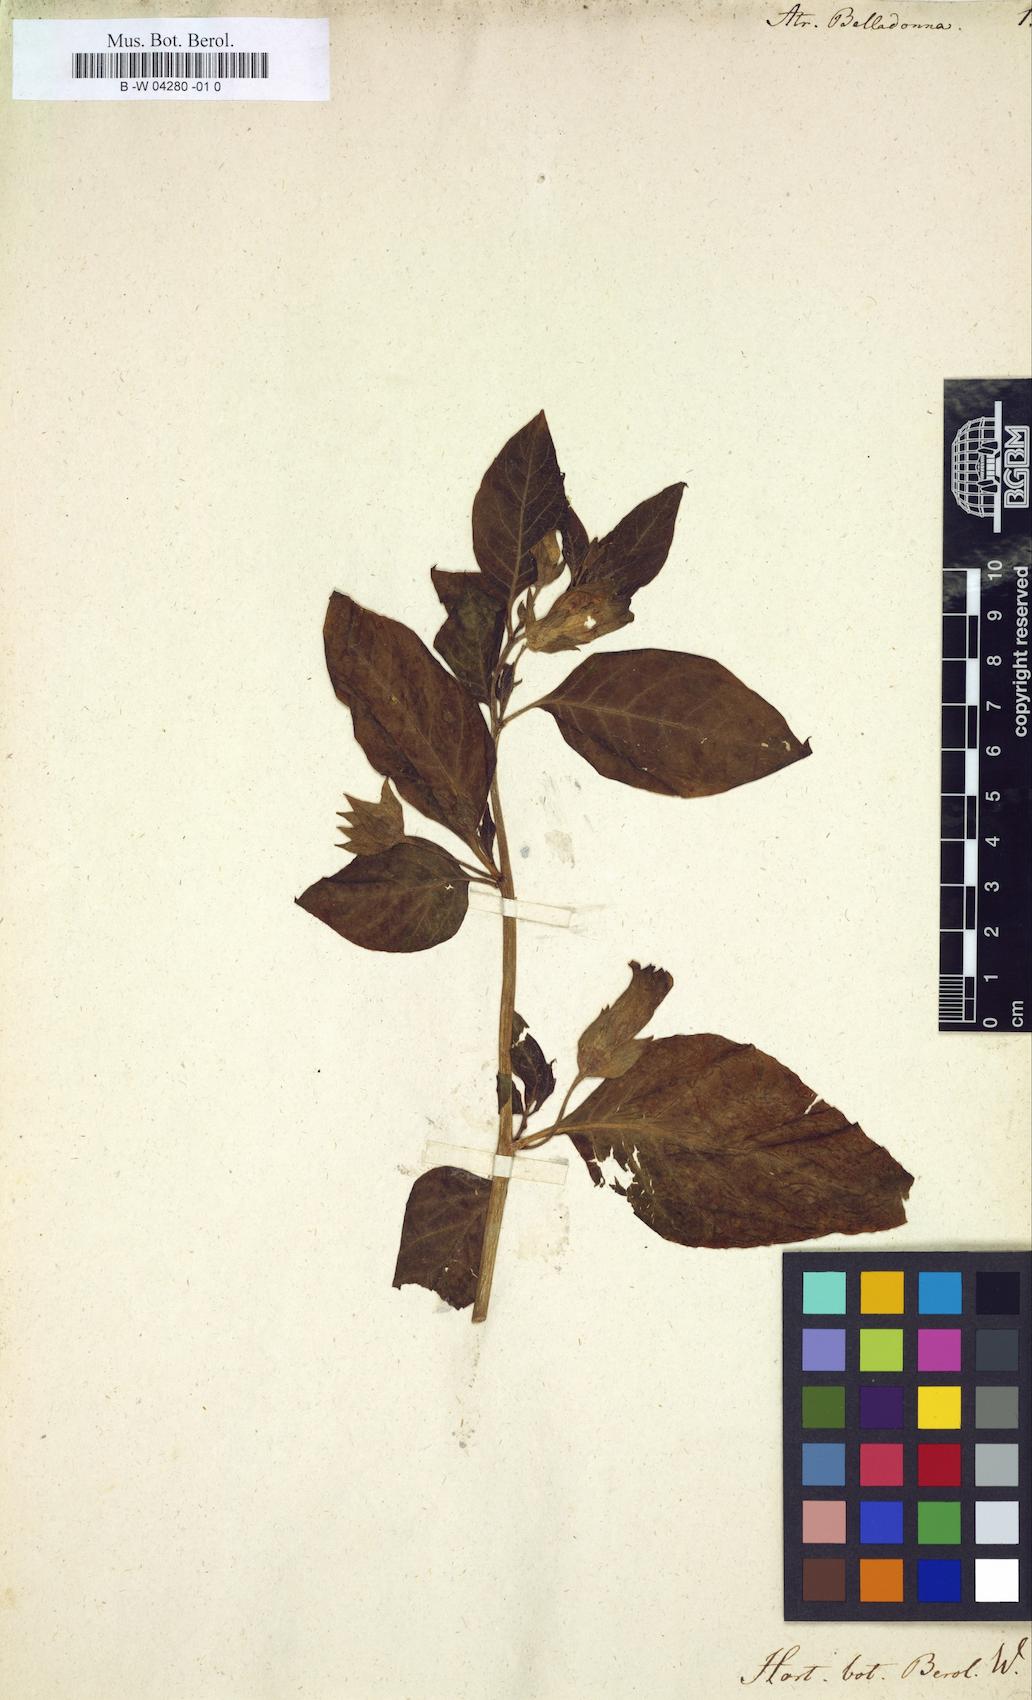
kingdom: Plantae
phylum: Tracheophyta
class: Magnoliopsida
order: Solanales
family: Solanaceae
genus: Atropa
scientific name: Atropa belladonna
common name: Deadly nightshade
